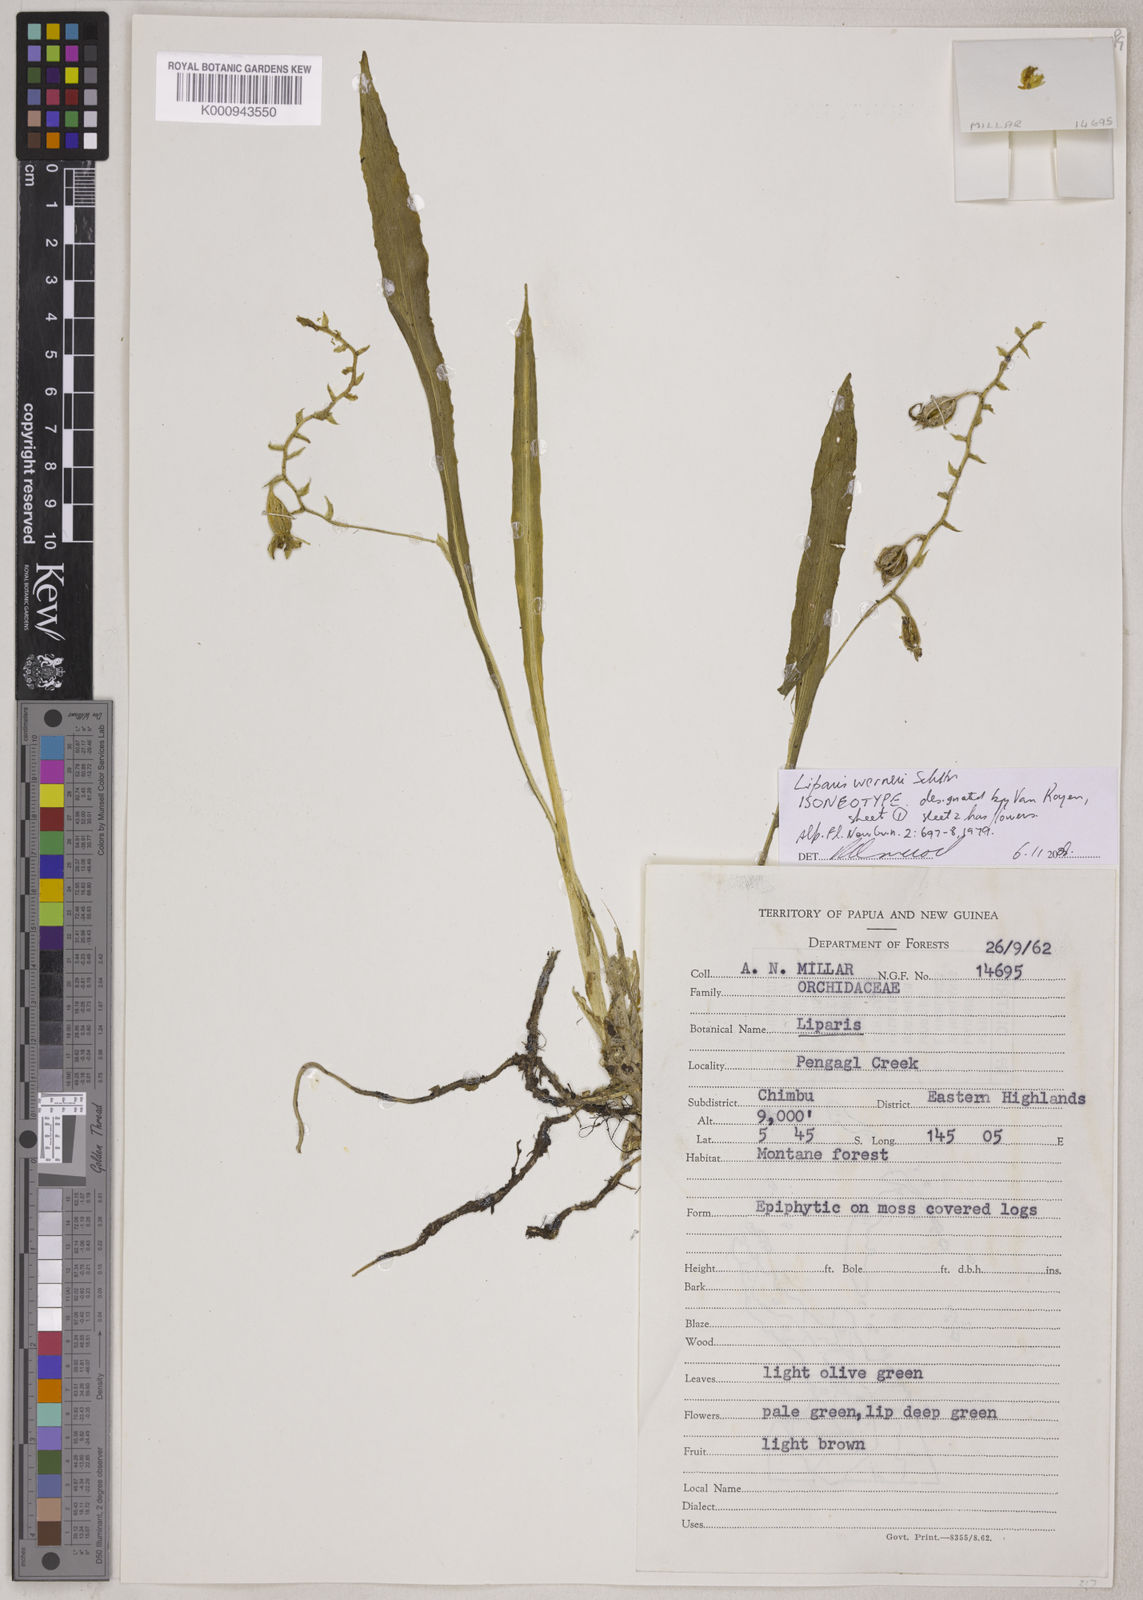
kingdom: Plantae
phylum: Tracheophyta
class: Liliopsida
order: Asparagales
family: Orchidaceae
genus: Liparis
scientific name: Liparis werneri
